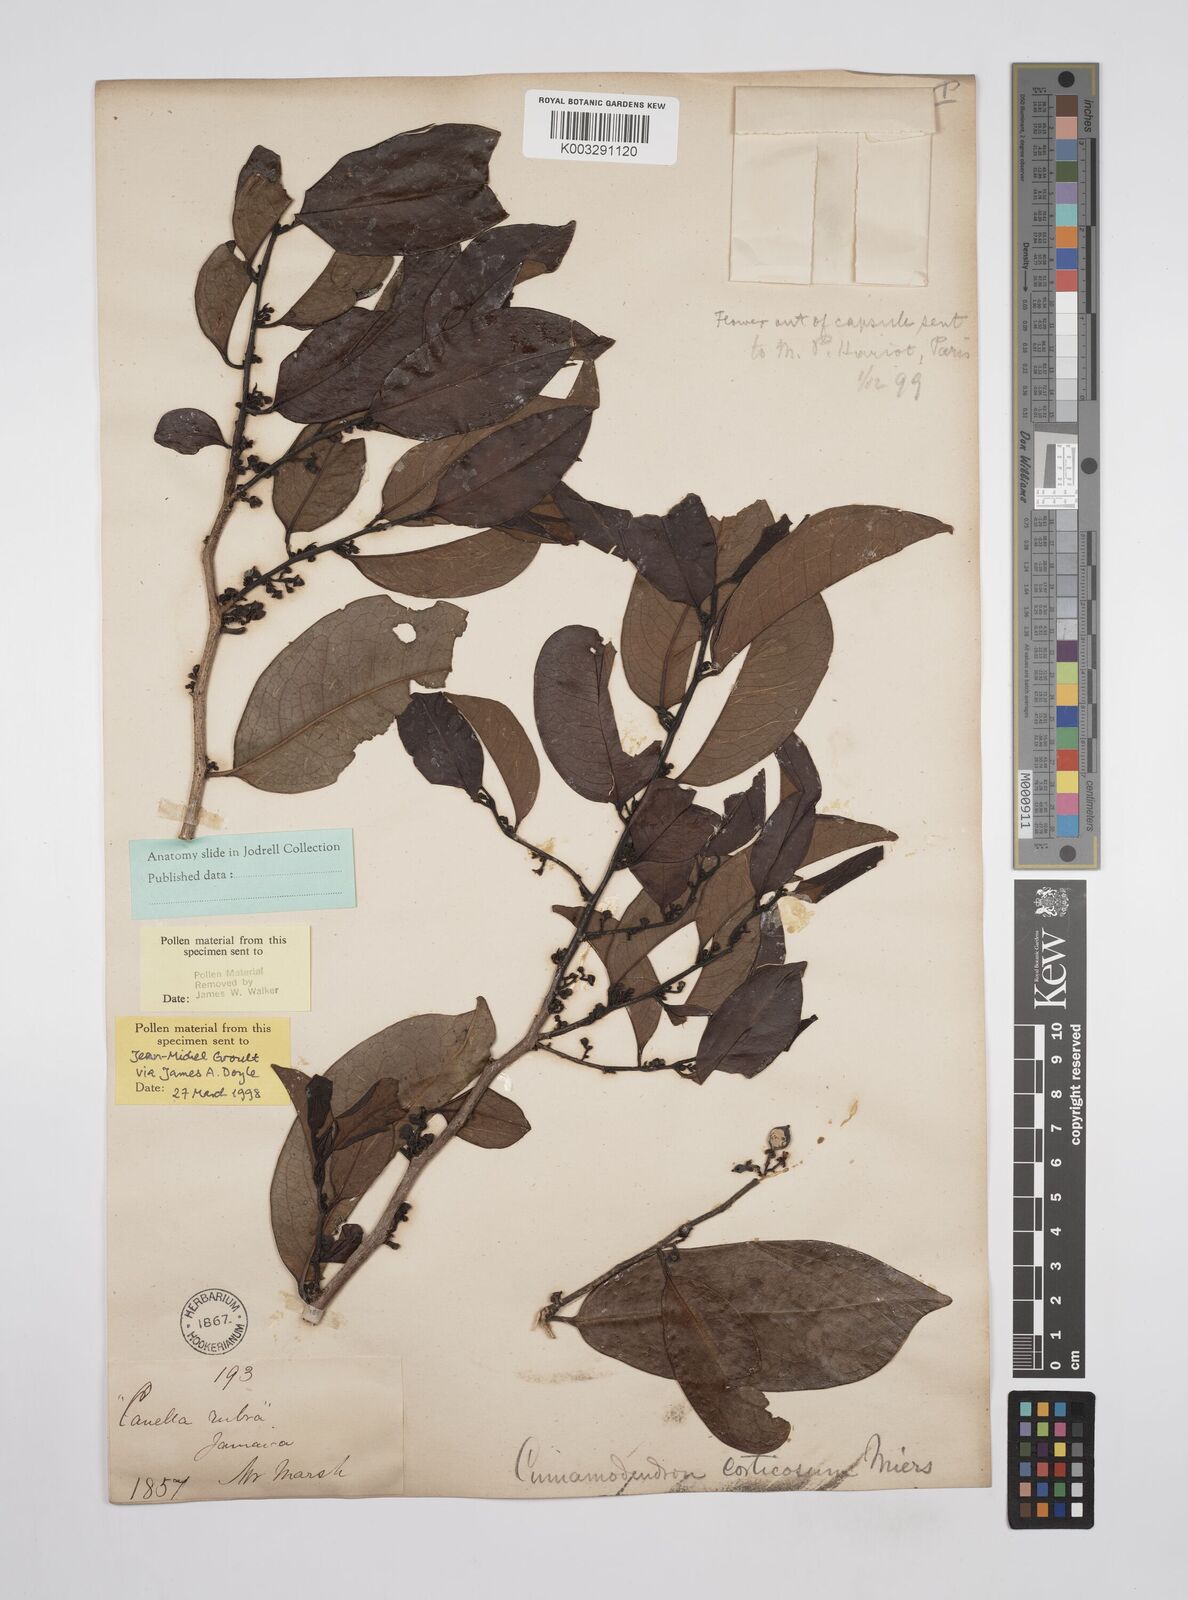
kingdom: Plantae
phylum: Tracheophyta
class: Magnoliopsida
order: Canellales
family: Canellaceae
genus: Cinnamodendron
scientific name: Cinnamodendron corticosum
